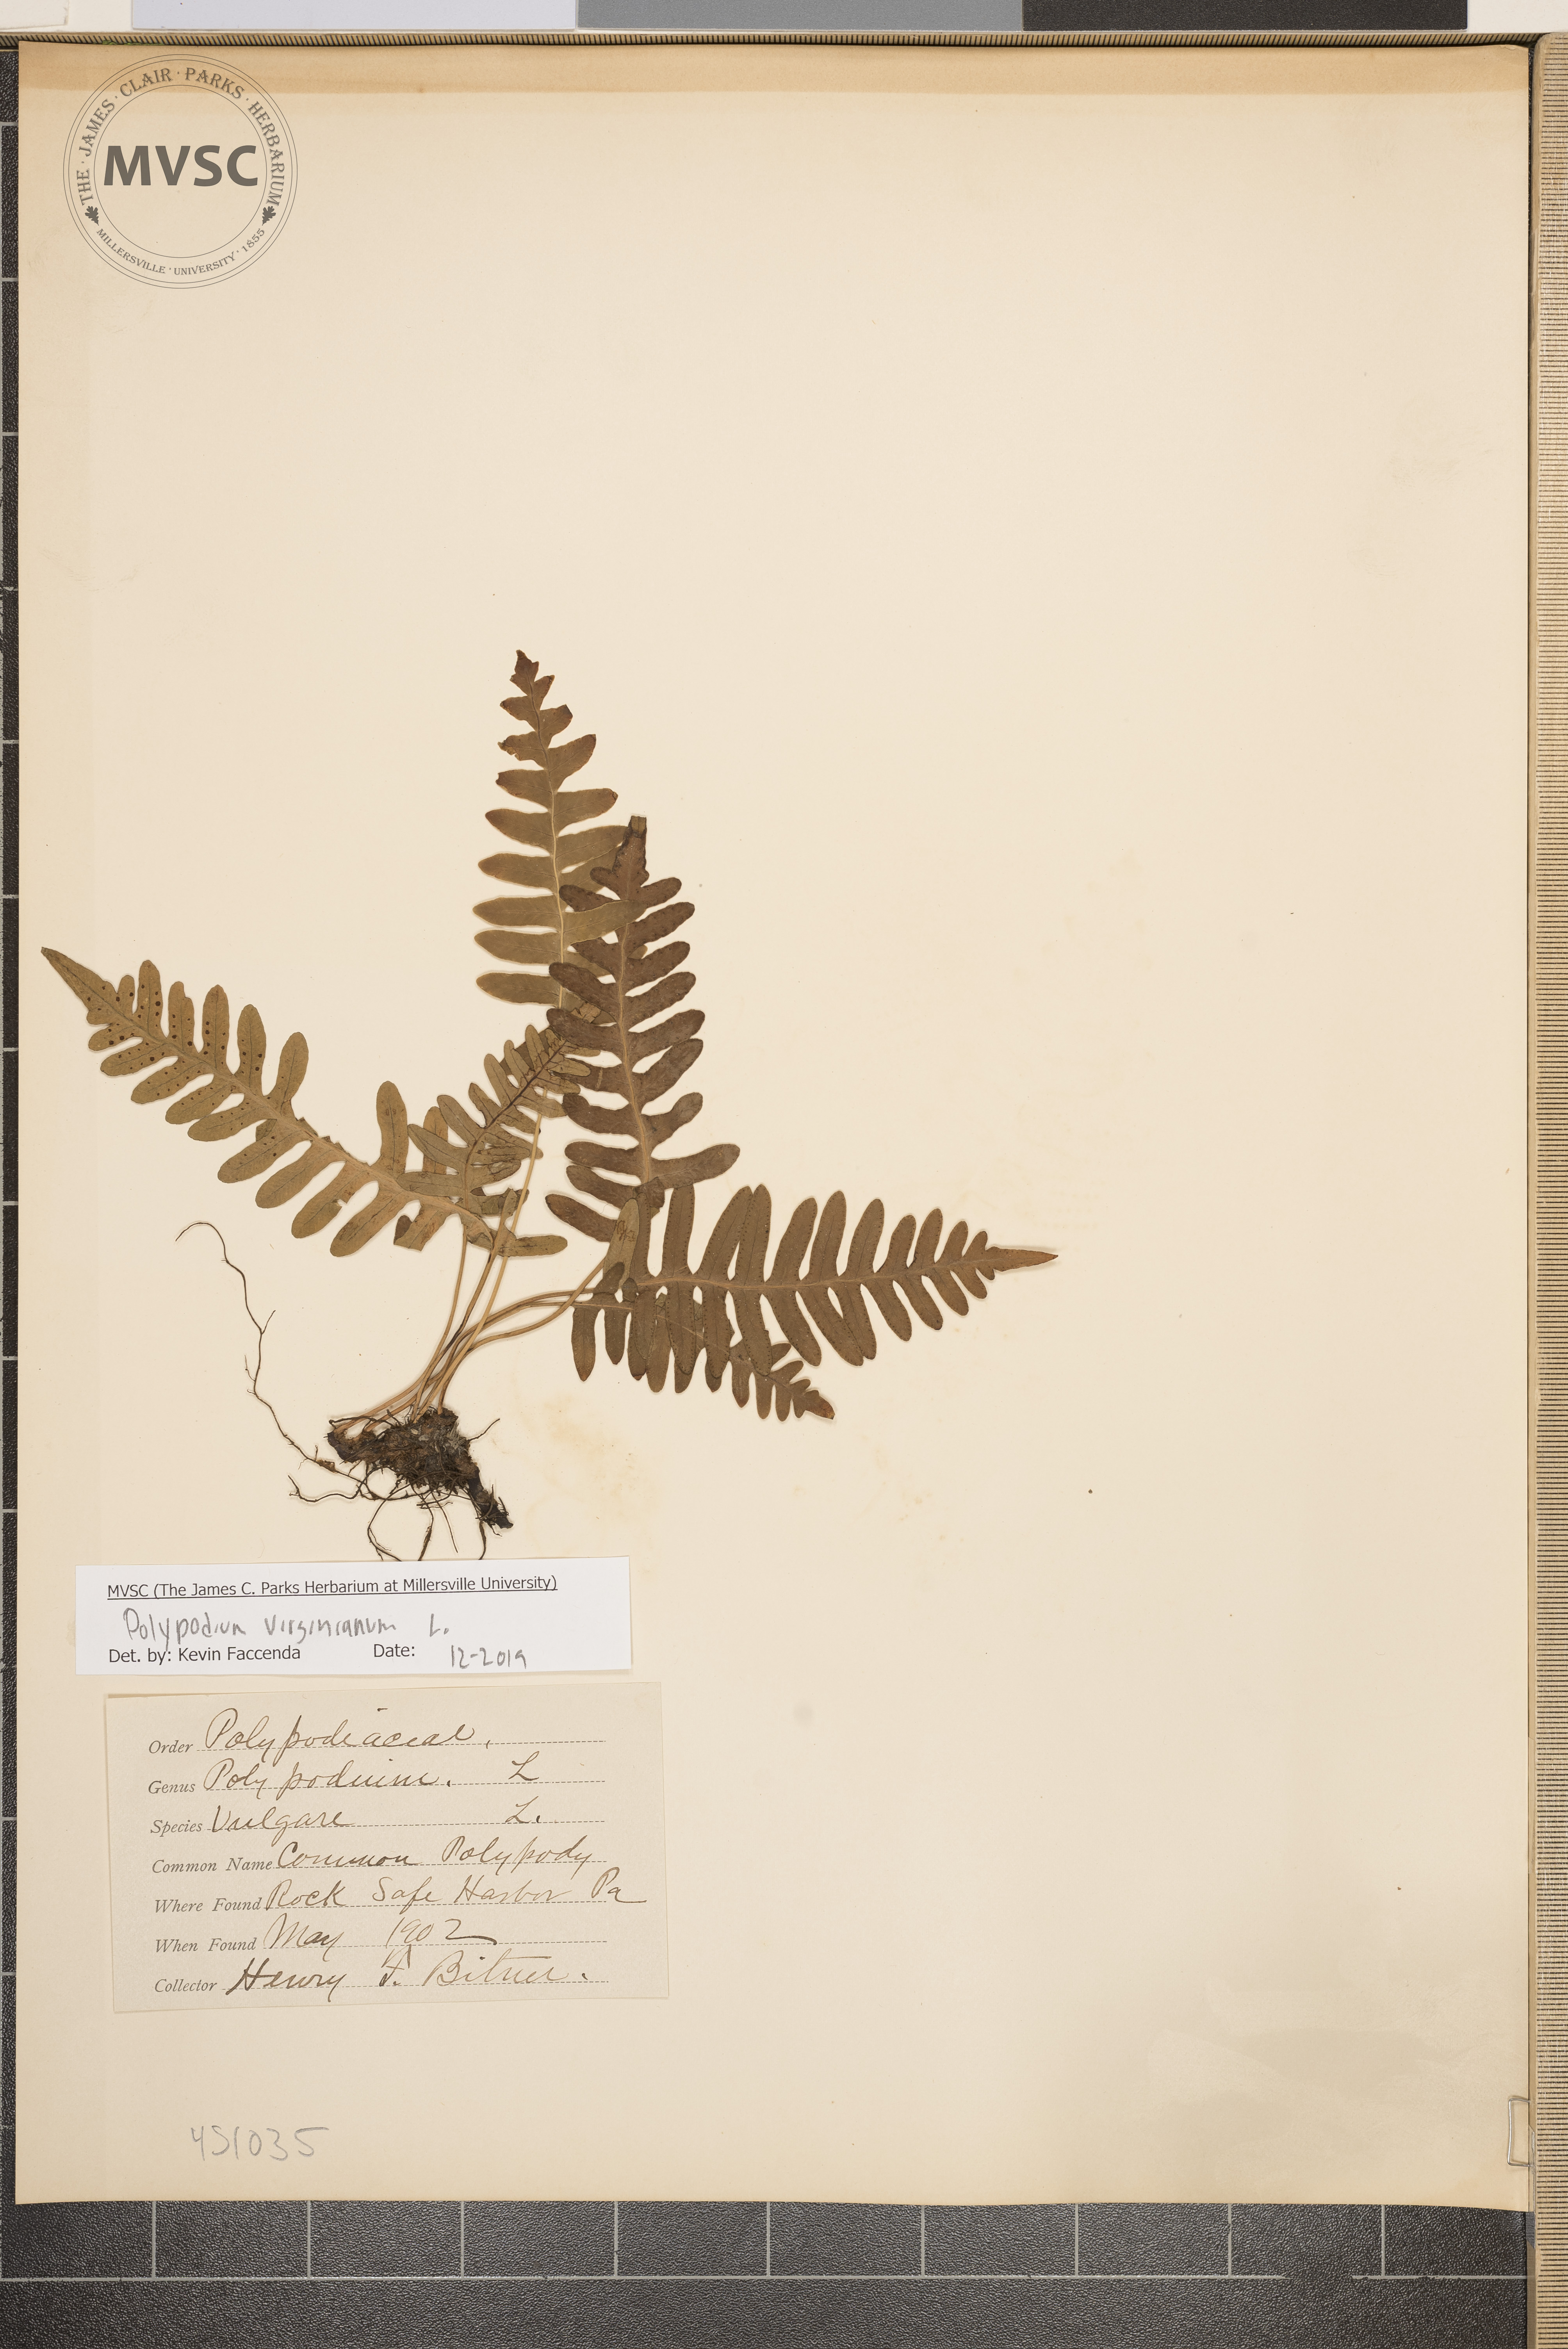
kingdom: Plantae
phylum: Tracheophyta
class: Polypodiopsida
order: Polypodiales
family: Polypodiaceae
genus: Polypodium
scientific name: Polypodium virginianum
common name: Common Polypody
